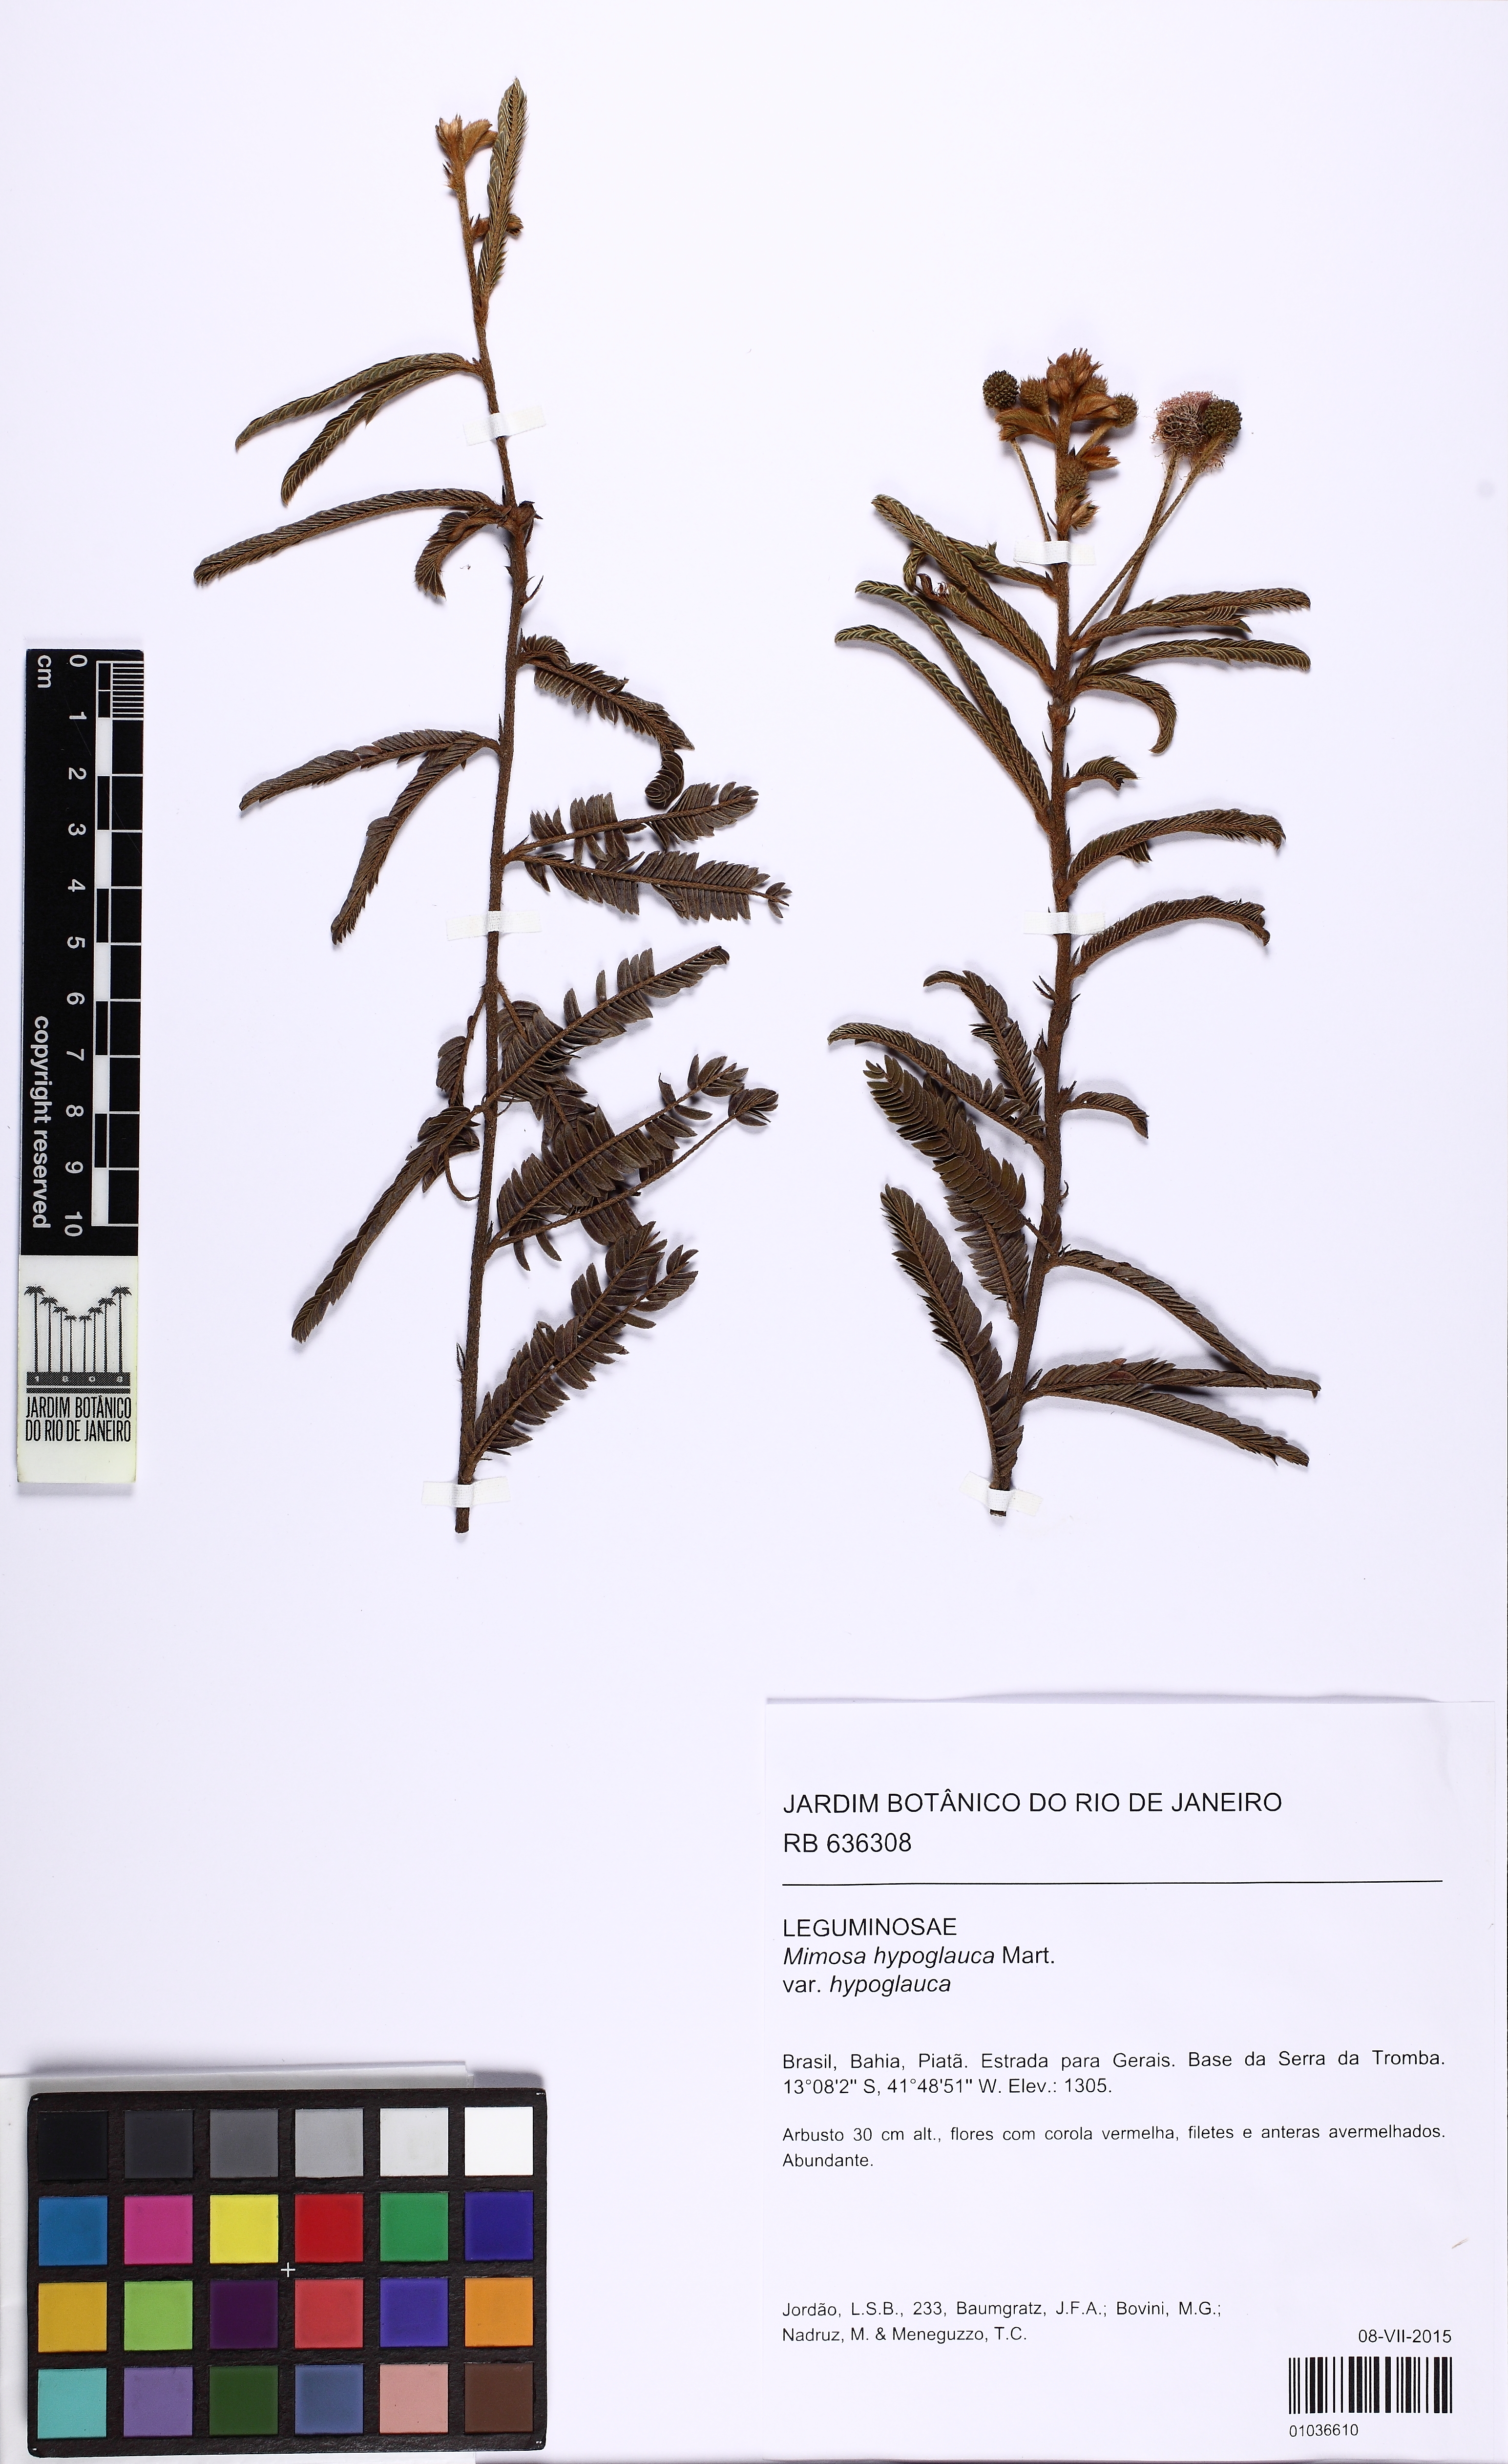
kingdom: Plantae
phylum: Tracheophyta
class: Magnoliopsida
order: Fabales
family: Fabaceae
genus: Mimosa
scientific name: Mimosa hypoglauca
